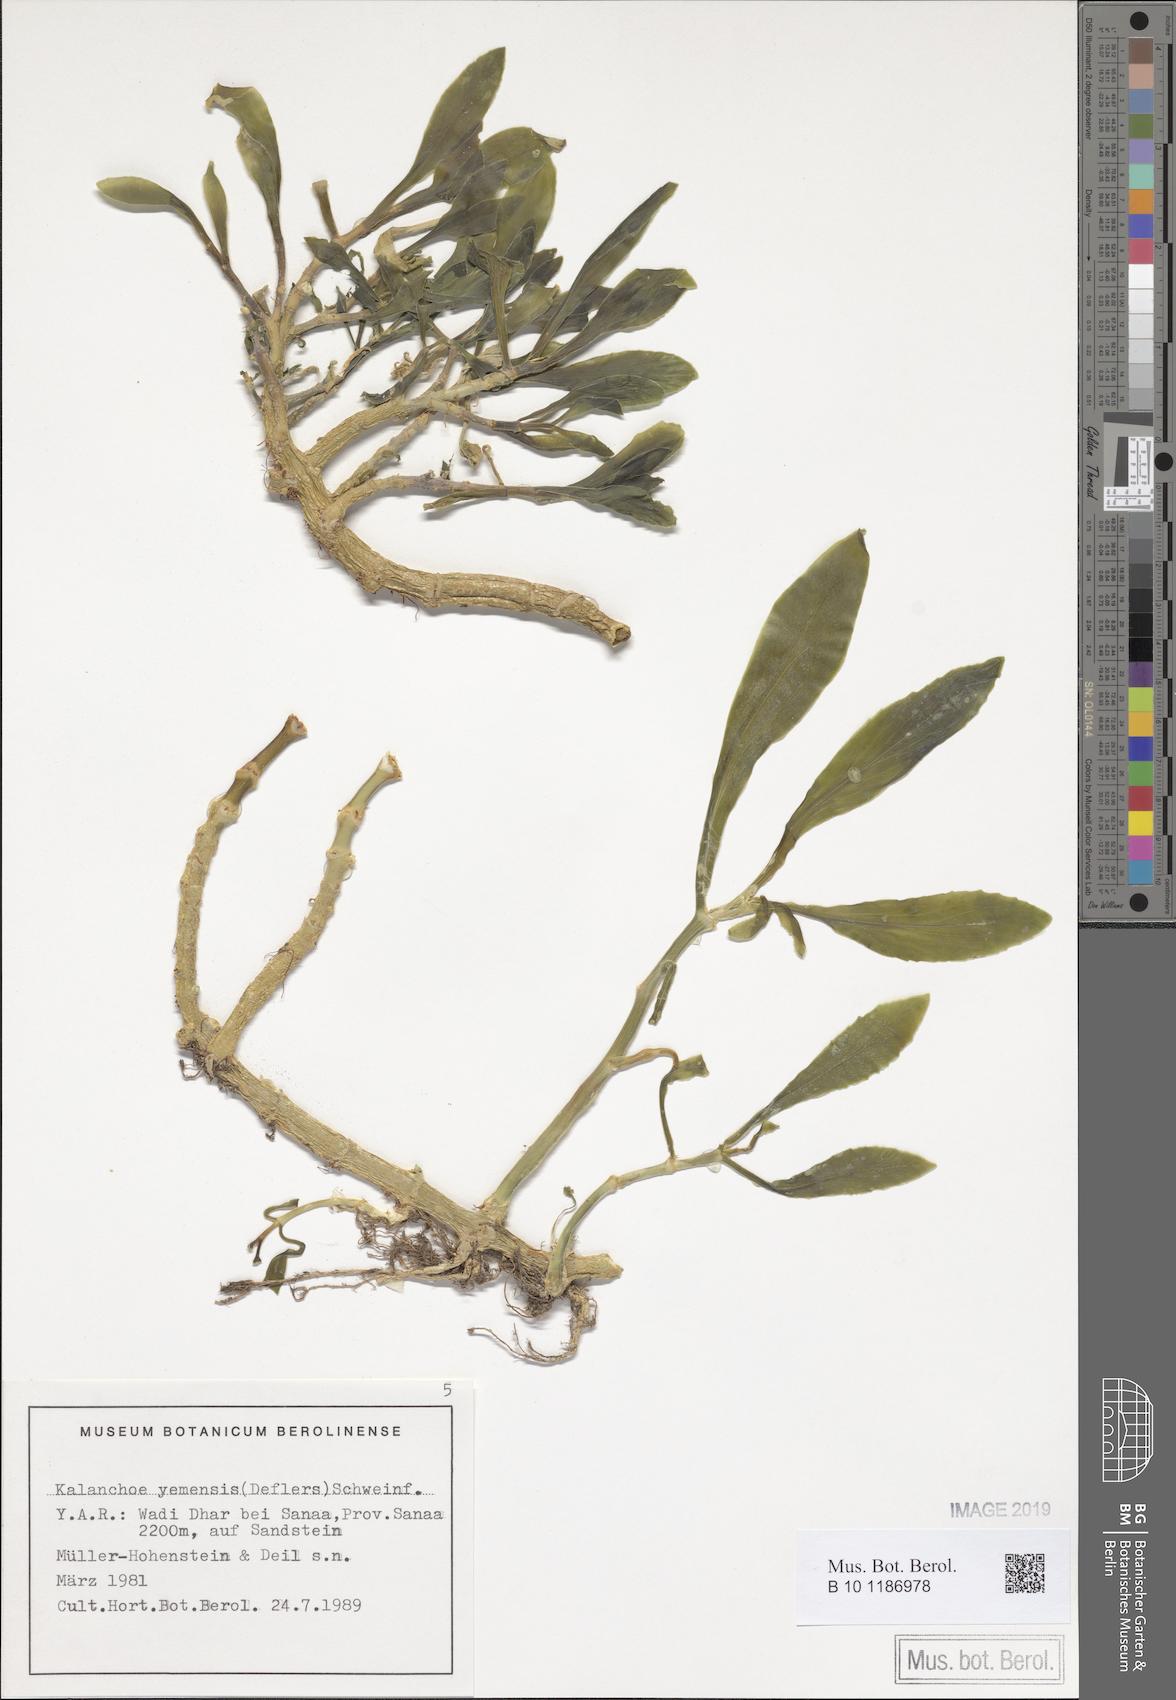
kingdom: Plantae
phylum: Tracheophyta
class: Magnoliopsida
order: Saxifragales
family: Crassulaceae
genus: Kalanchoe
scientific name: Kalanchoe yemensis
